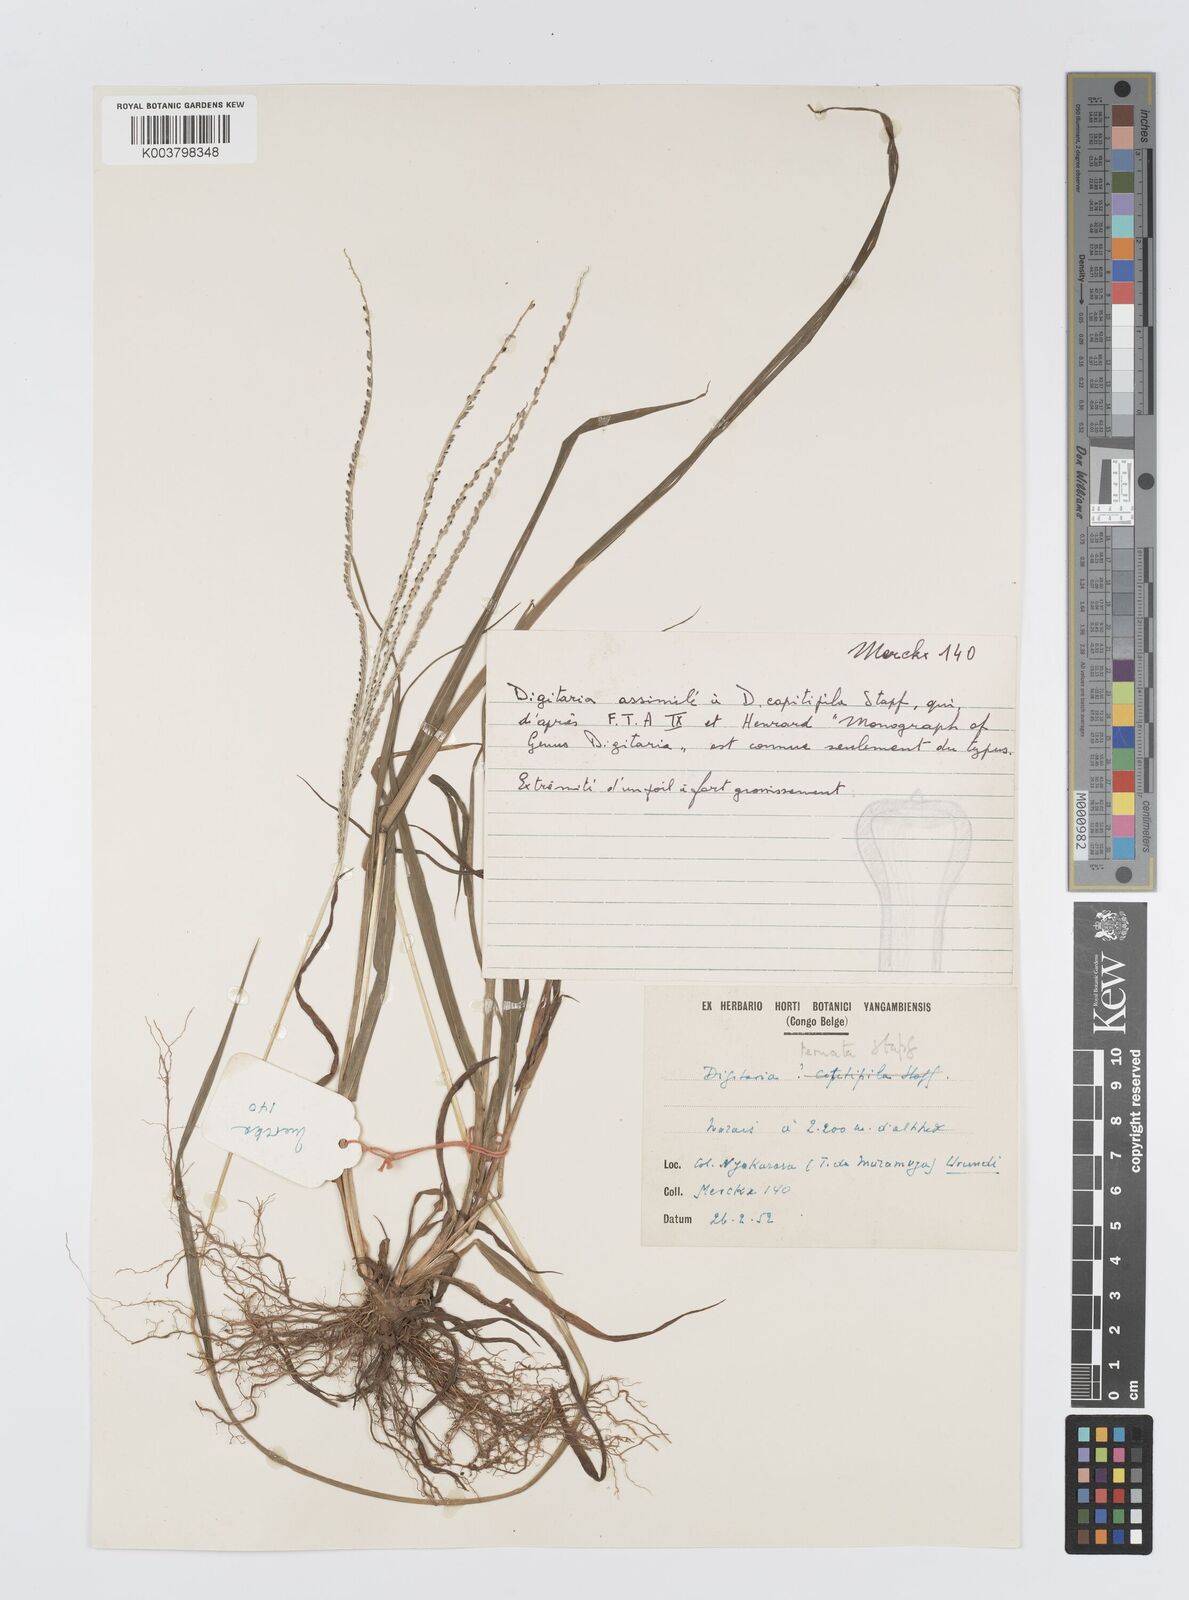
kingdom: Plantae
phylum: Tracheophyta
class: Liliopsida
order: Poales
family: Poaceae
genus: Digitaria
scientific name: Digitaria ternata
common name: Blackseed crabgrass
